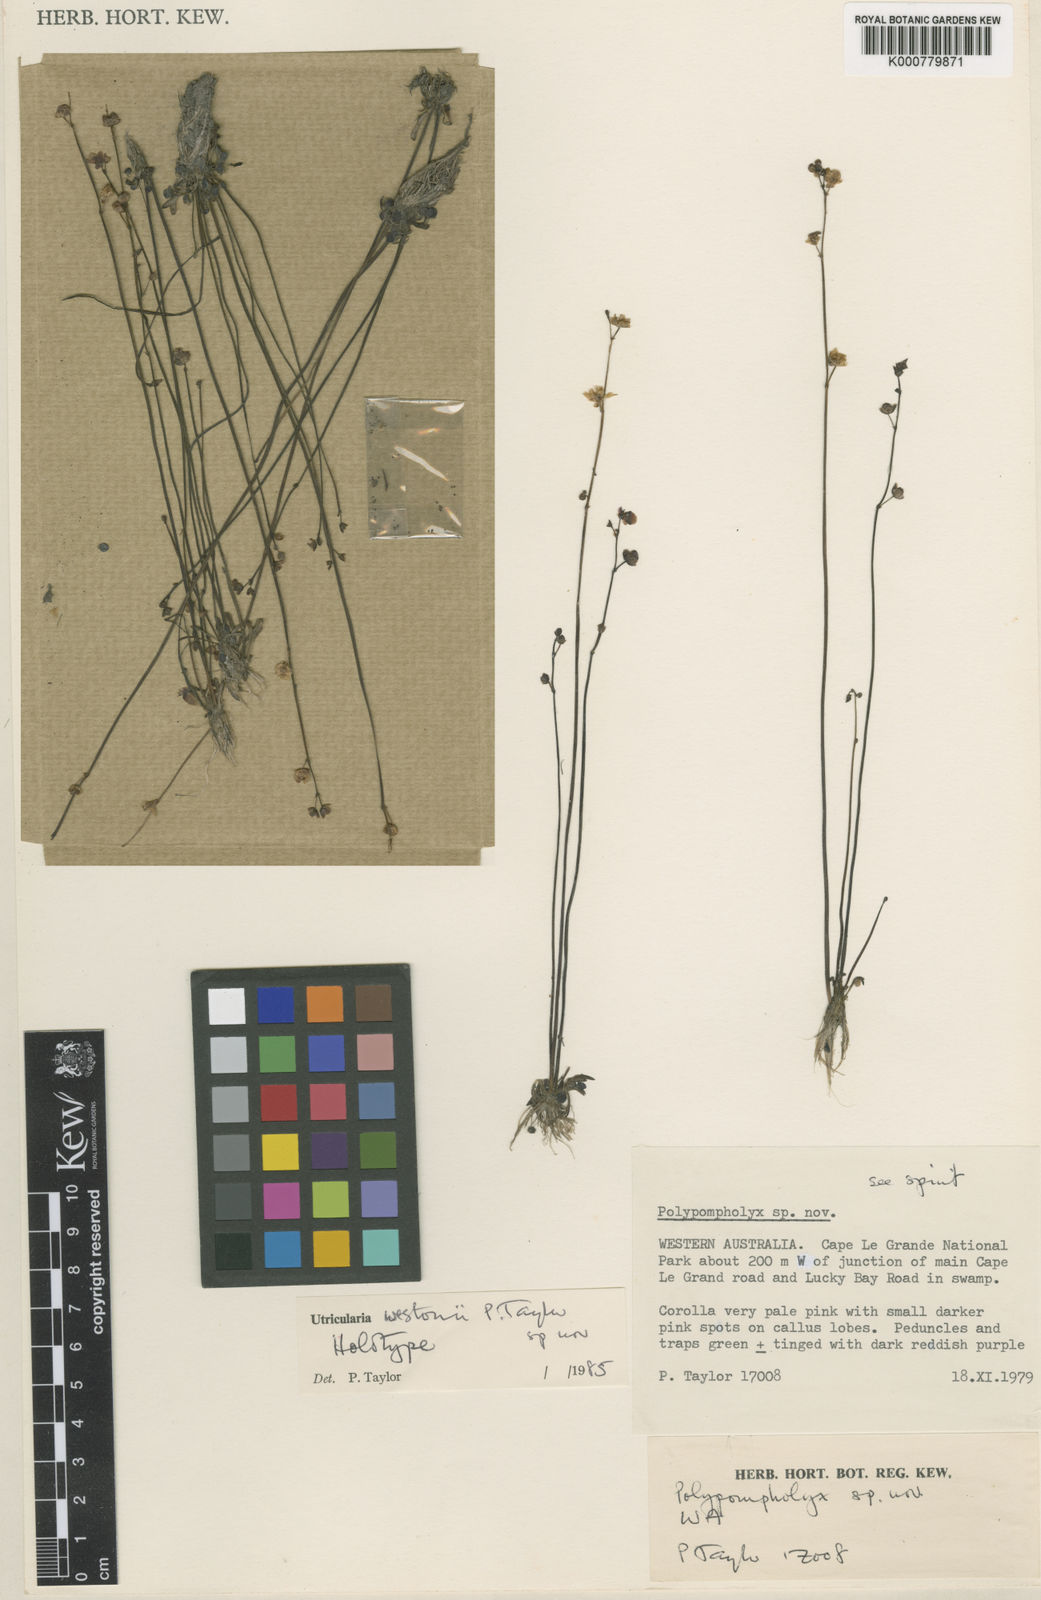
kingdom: Plantae
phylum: Tracheophyta
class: Magnoliopsida
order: Lamiales
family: Lentibulariaceae
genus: Utricularia
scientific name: Utricularia westonii
